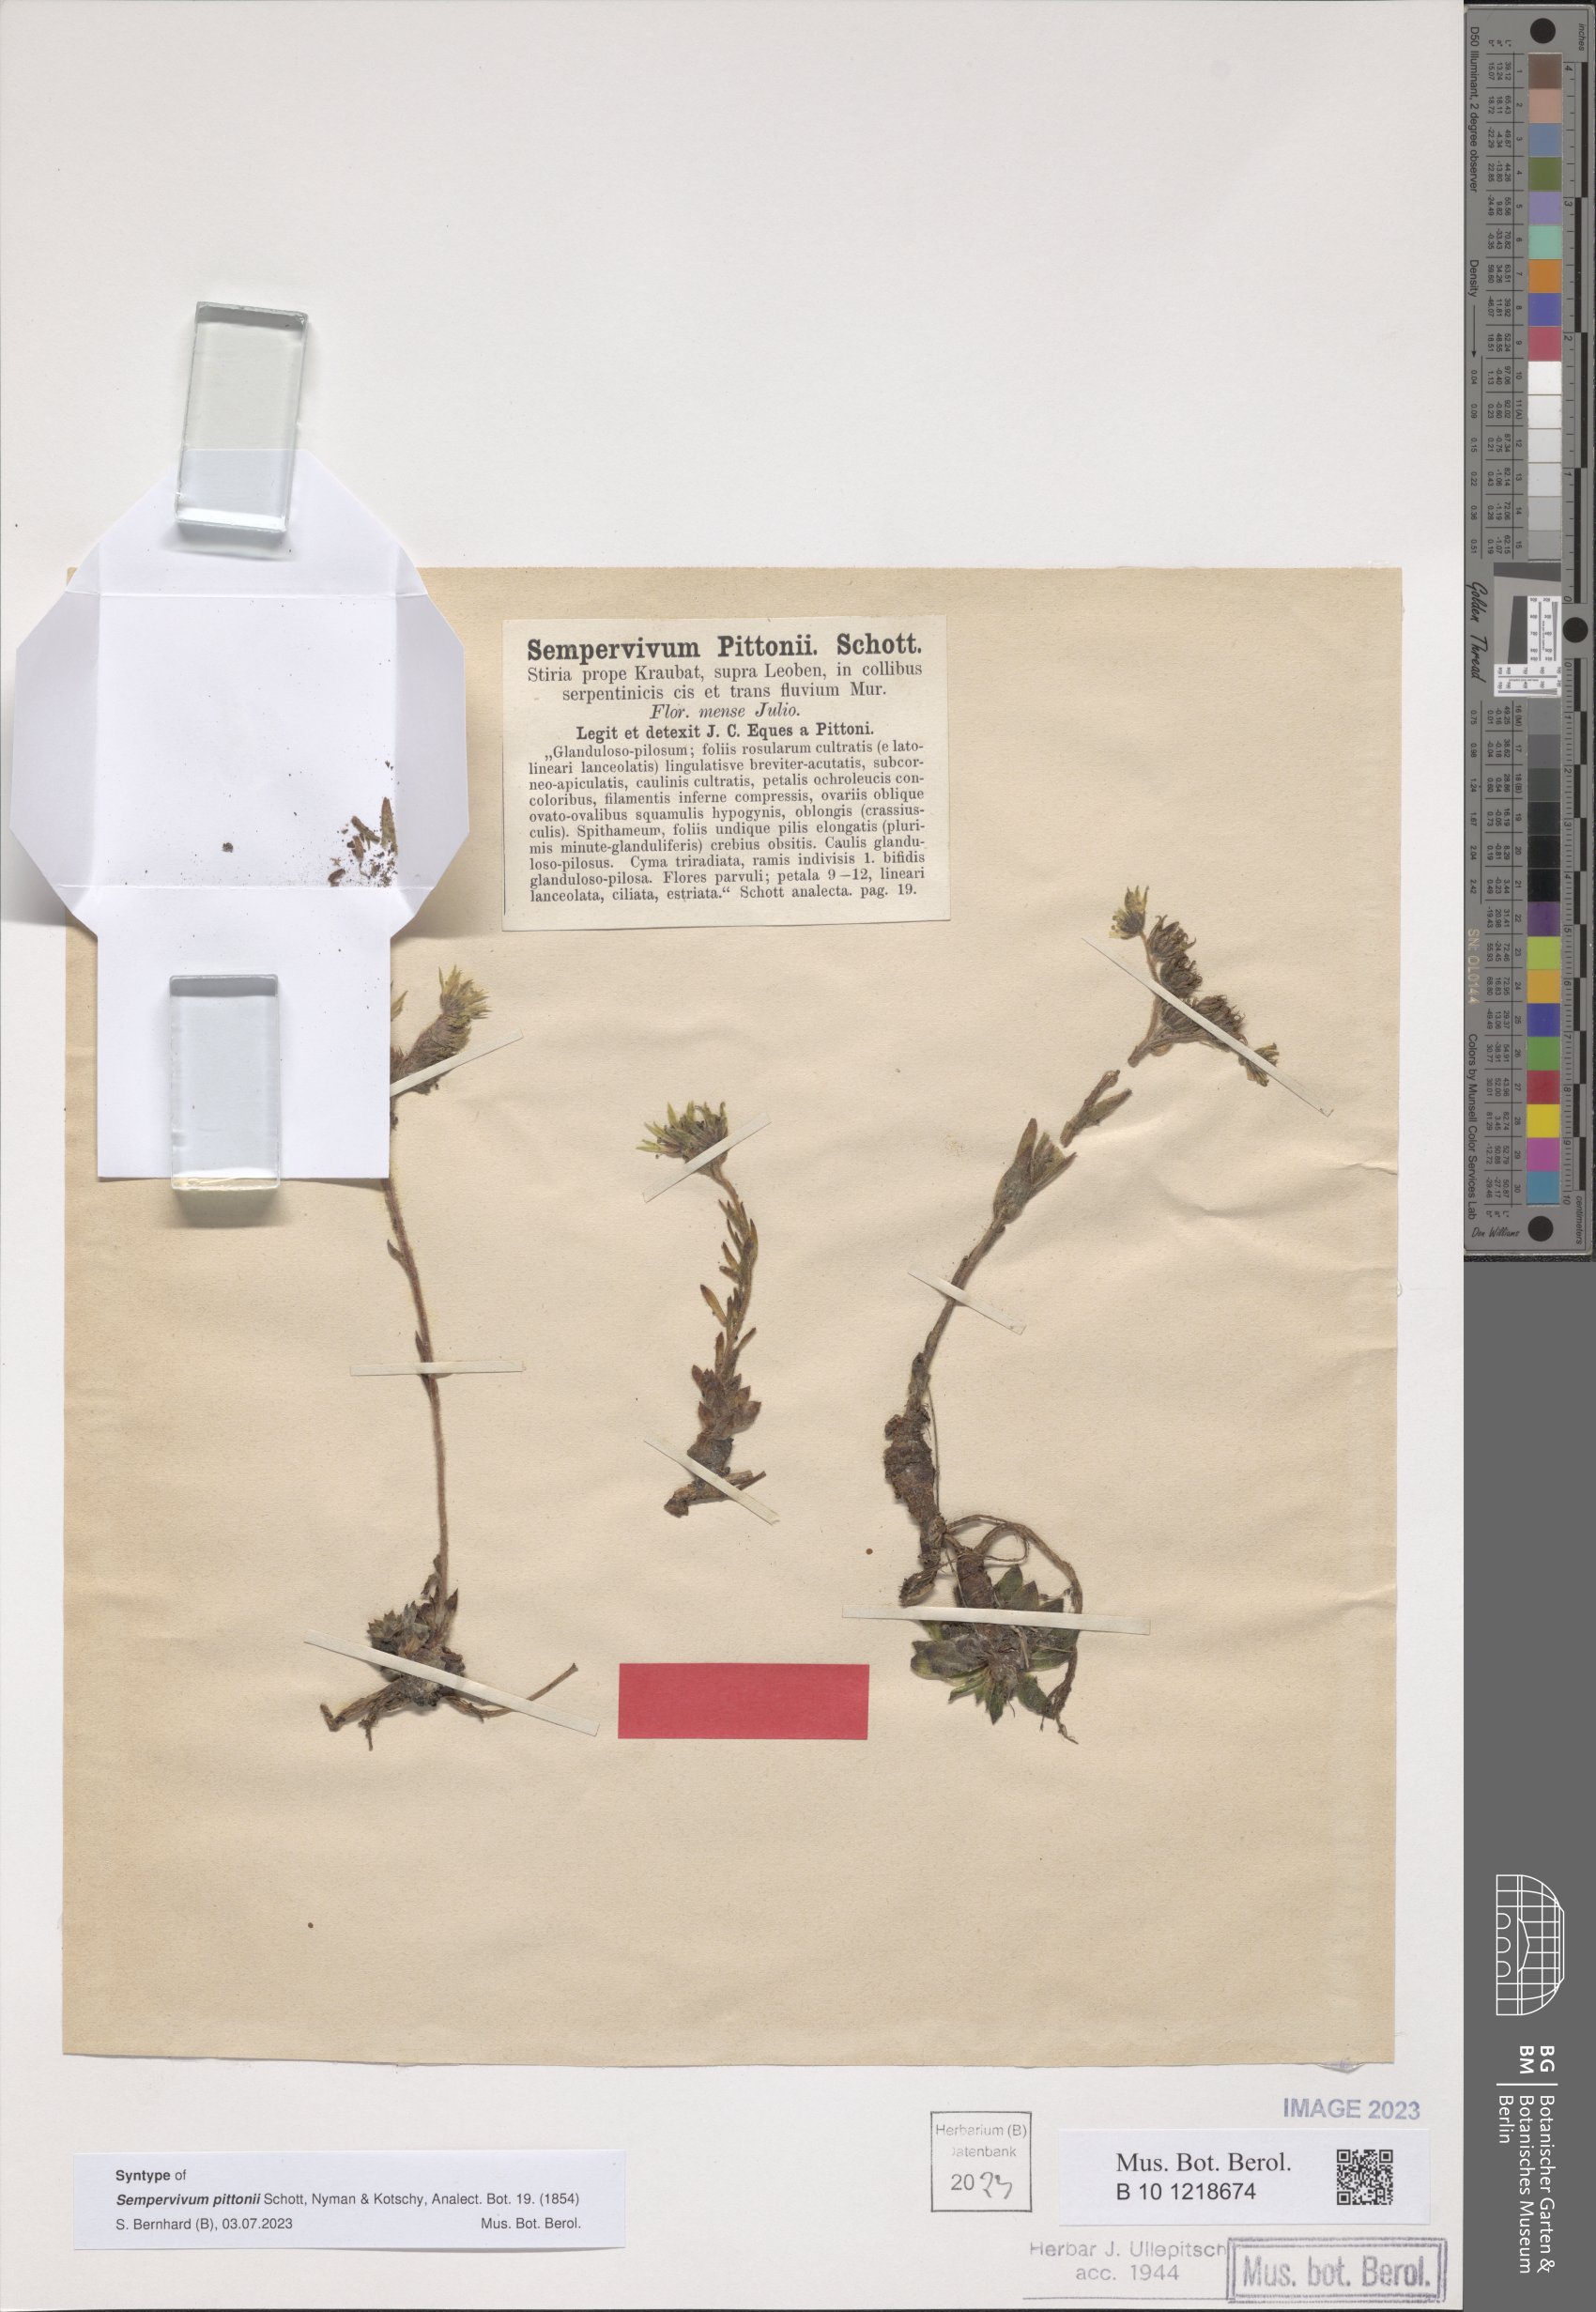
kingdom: Plantae
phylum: Tracheophyta
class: Magnoliopsida
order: Saxifragales
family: Crassulaceae
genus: Sempervivum
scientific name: Sempervivum pittonii
